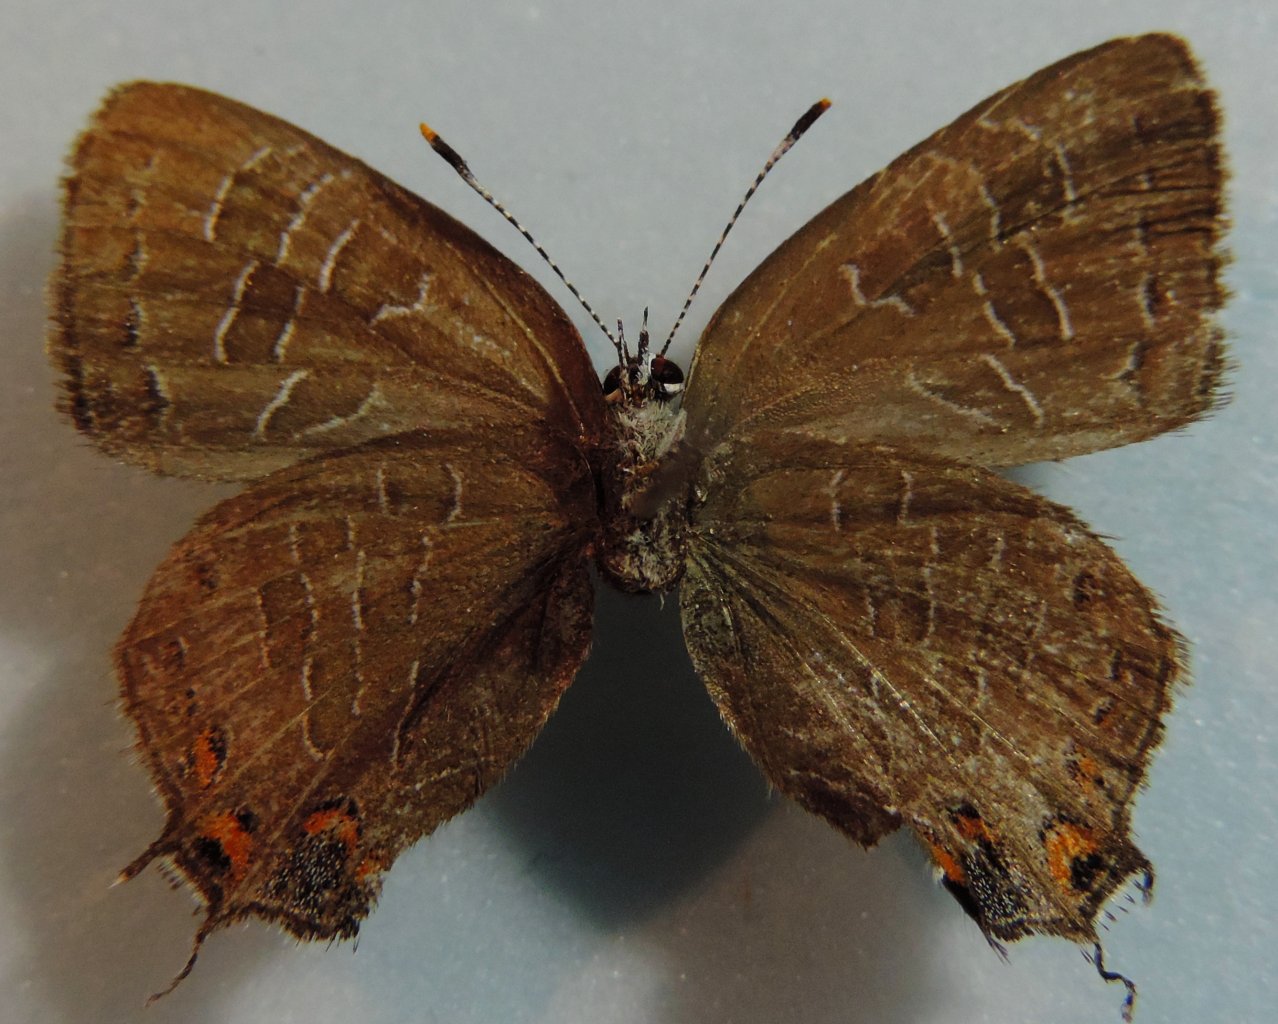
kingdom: Animalia
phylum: Arthropoda
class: Insecta
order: Lepidoptera
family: Lycaenidae
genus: Satyrium
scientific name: Satyrium liparops
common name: Striped Hairstreak
